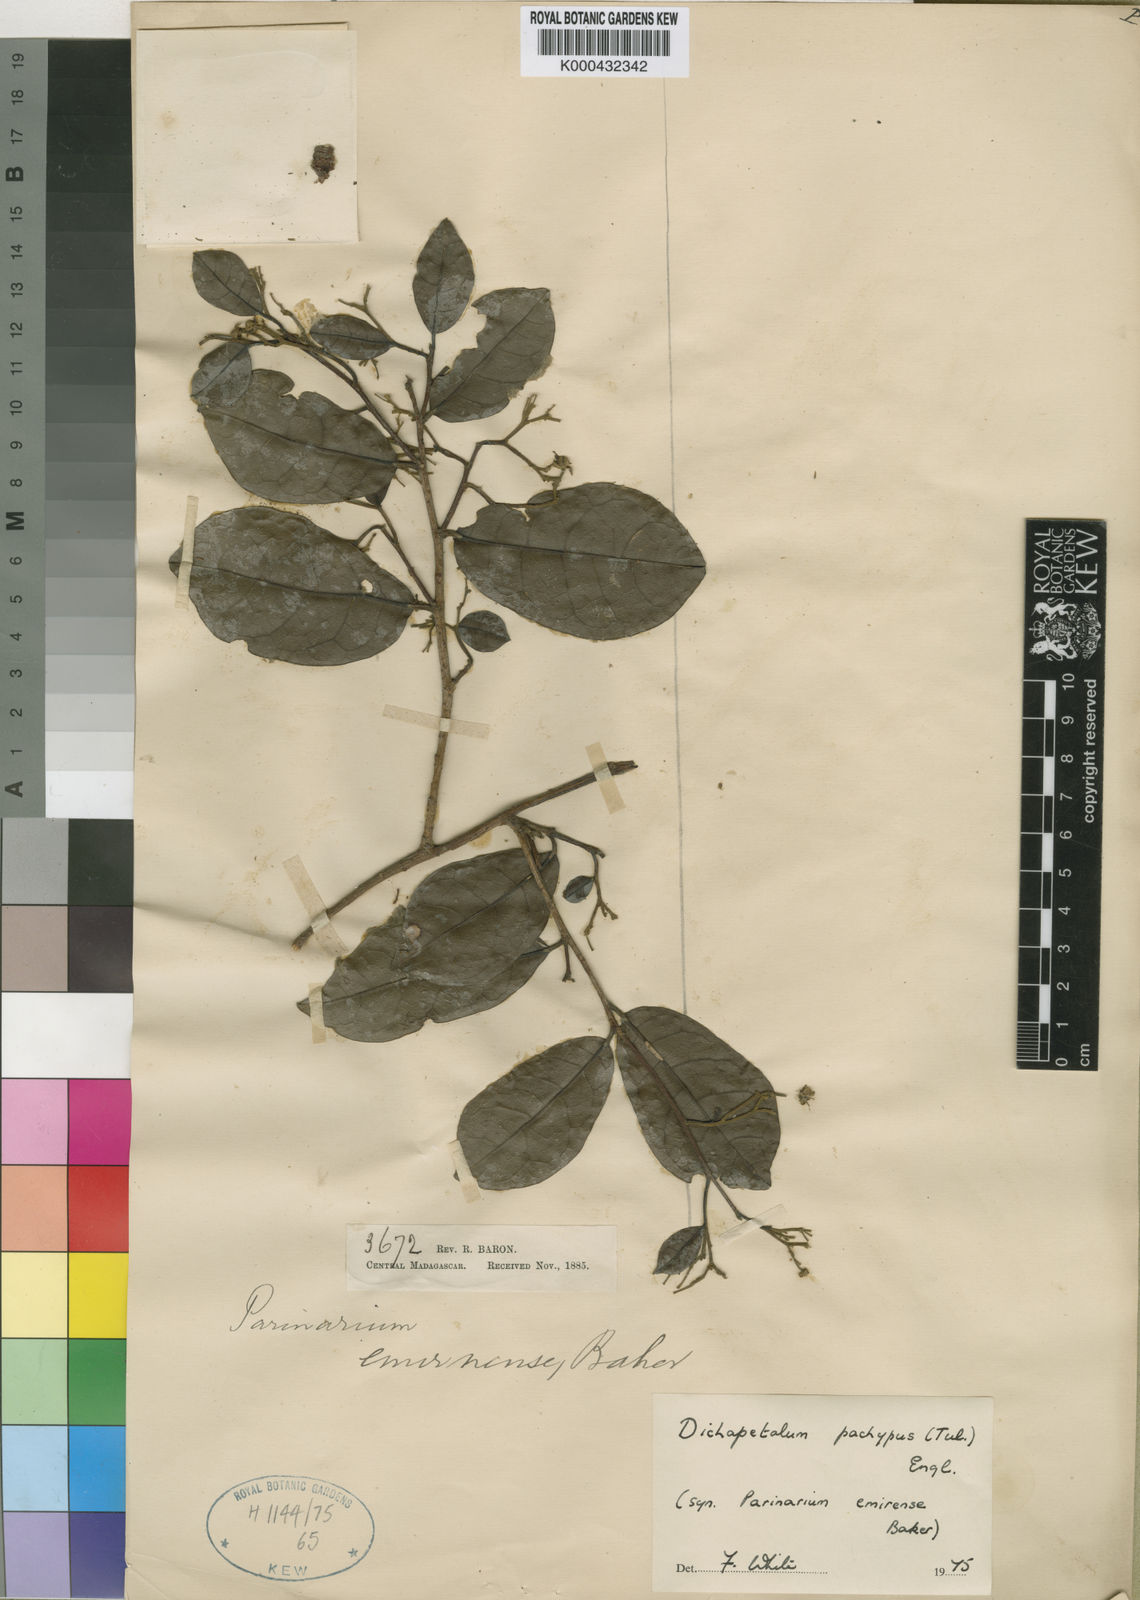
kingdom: Plantae
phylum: Tracheophyta
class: Magnoliopsida
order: Malpighiales
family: Dichapetalaceae
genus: Dichapetalum
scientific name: Dichapetalum leucosia
